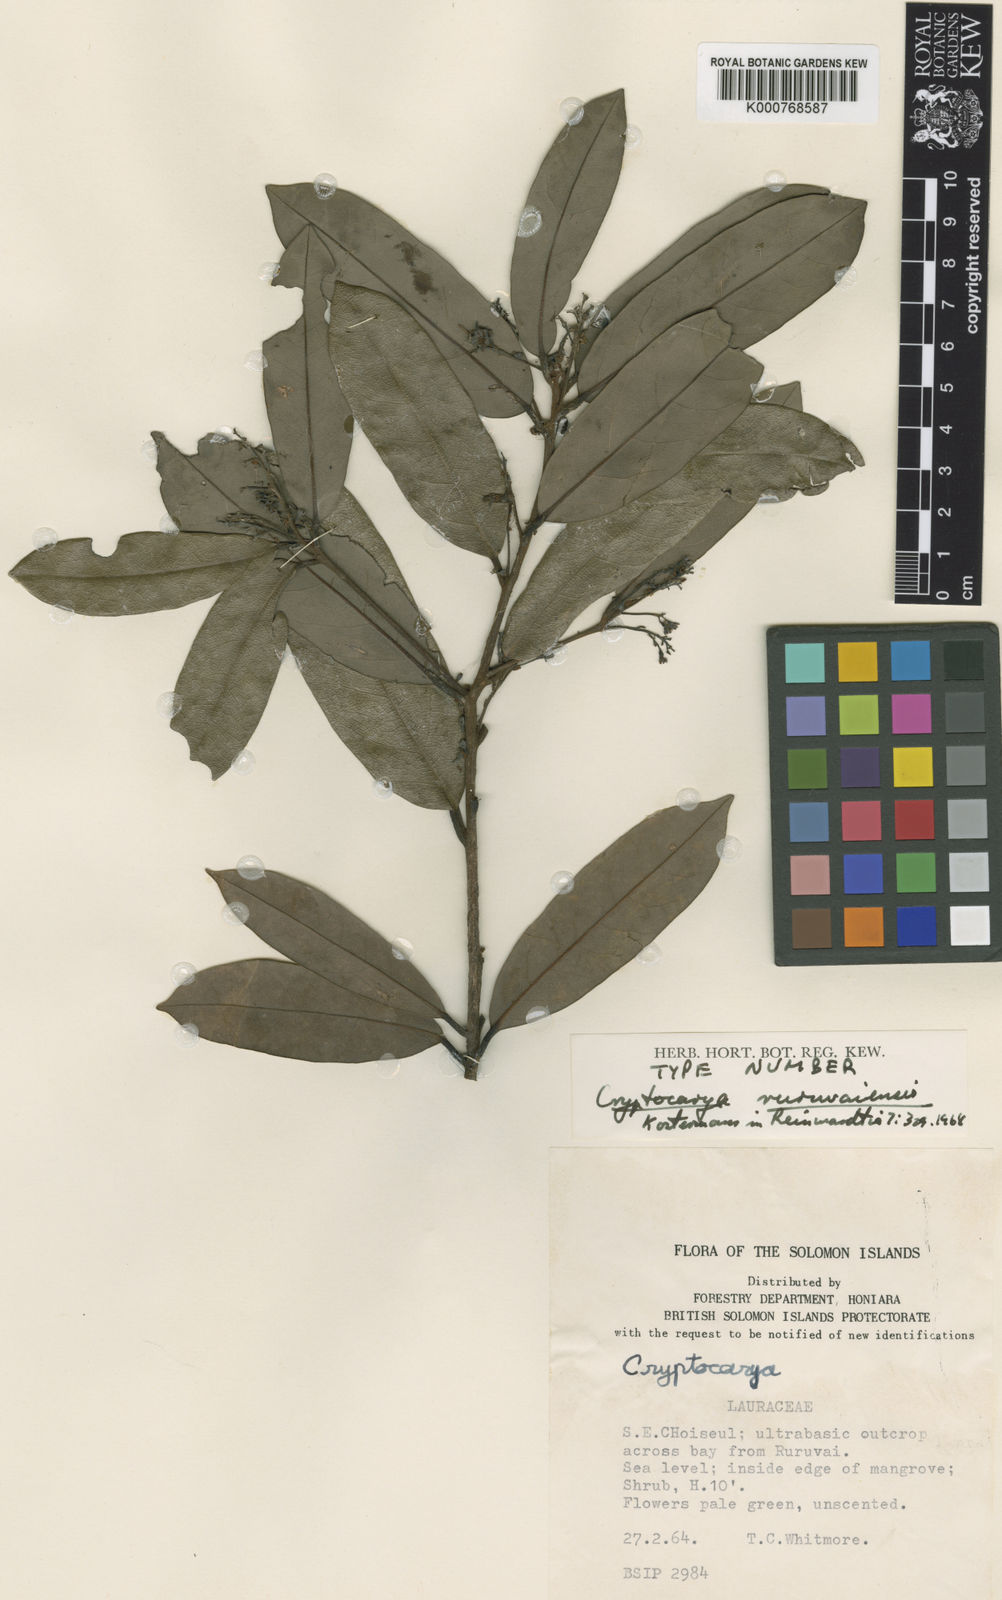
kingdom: Plantae
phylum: Tracheophyta
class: Magnoliopsida
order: Laurales
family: Lauraceae
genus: Cryptocarya
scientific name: Cryptocarya ruruvaiensis
